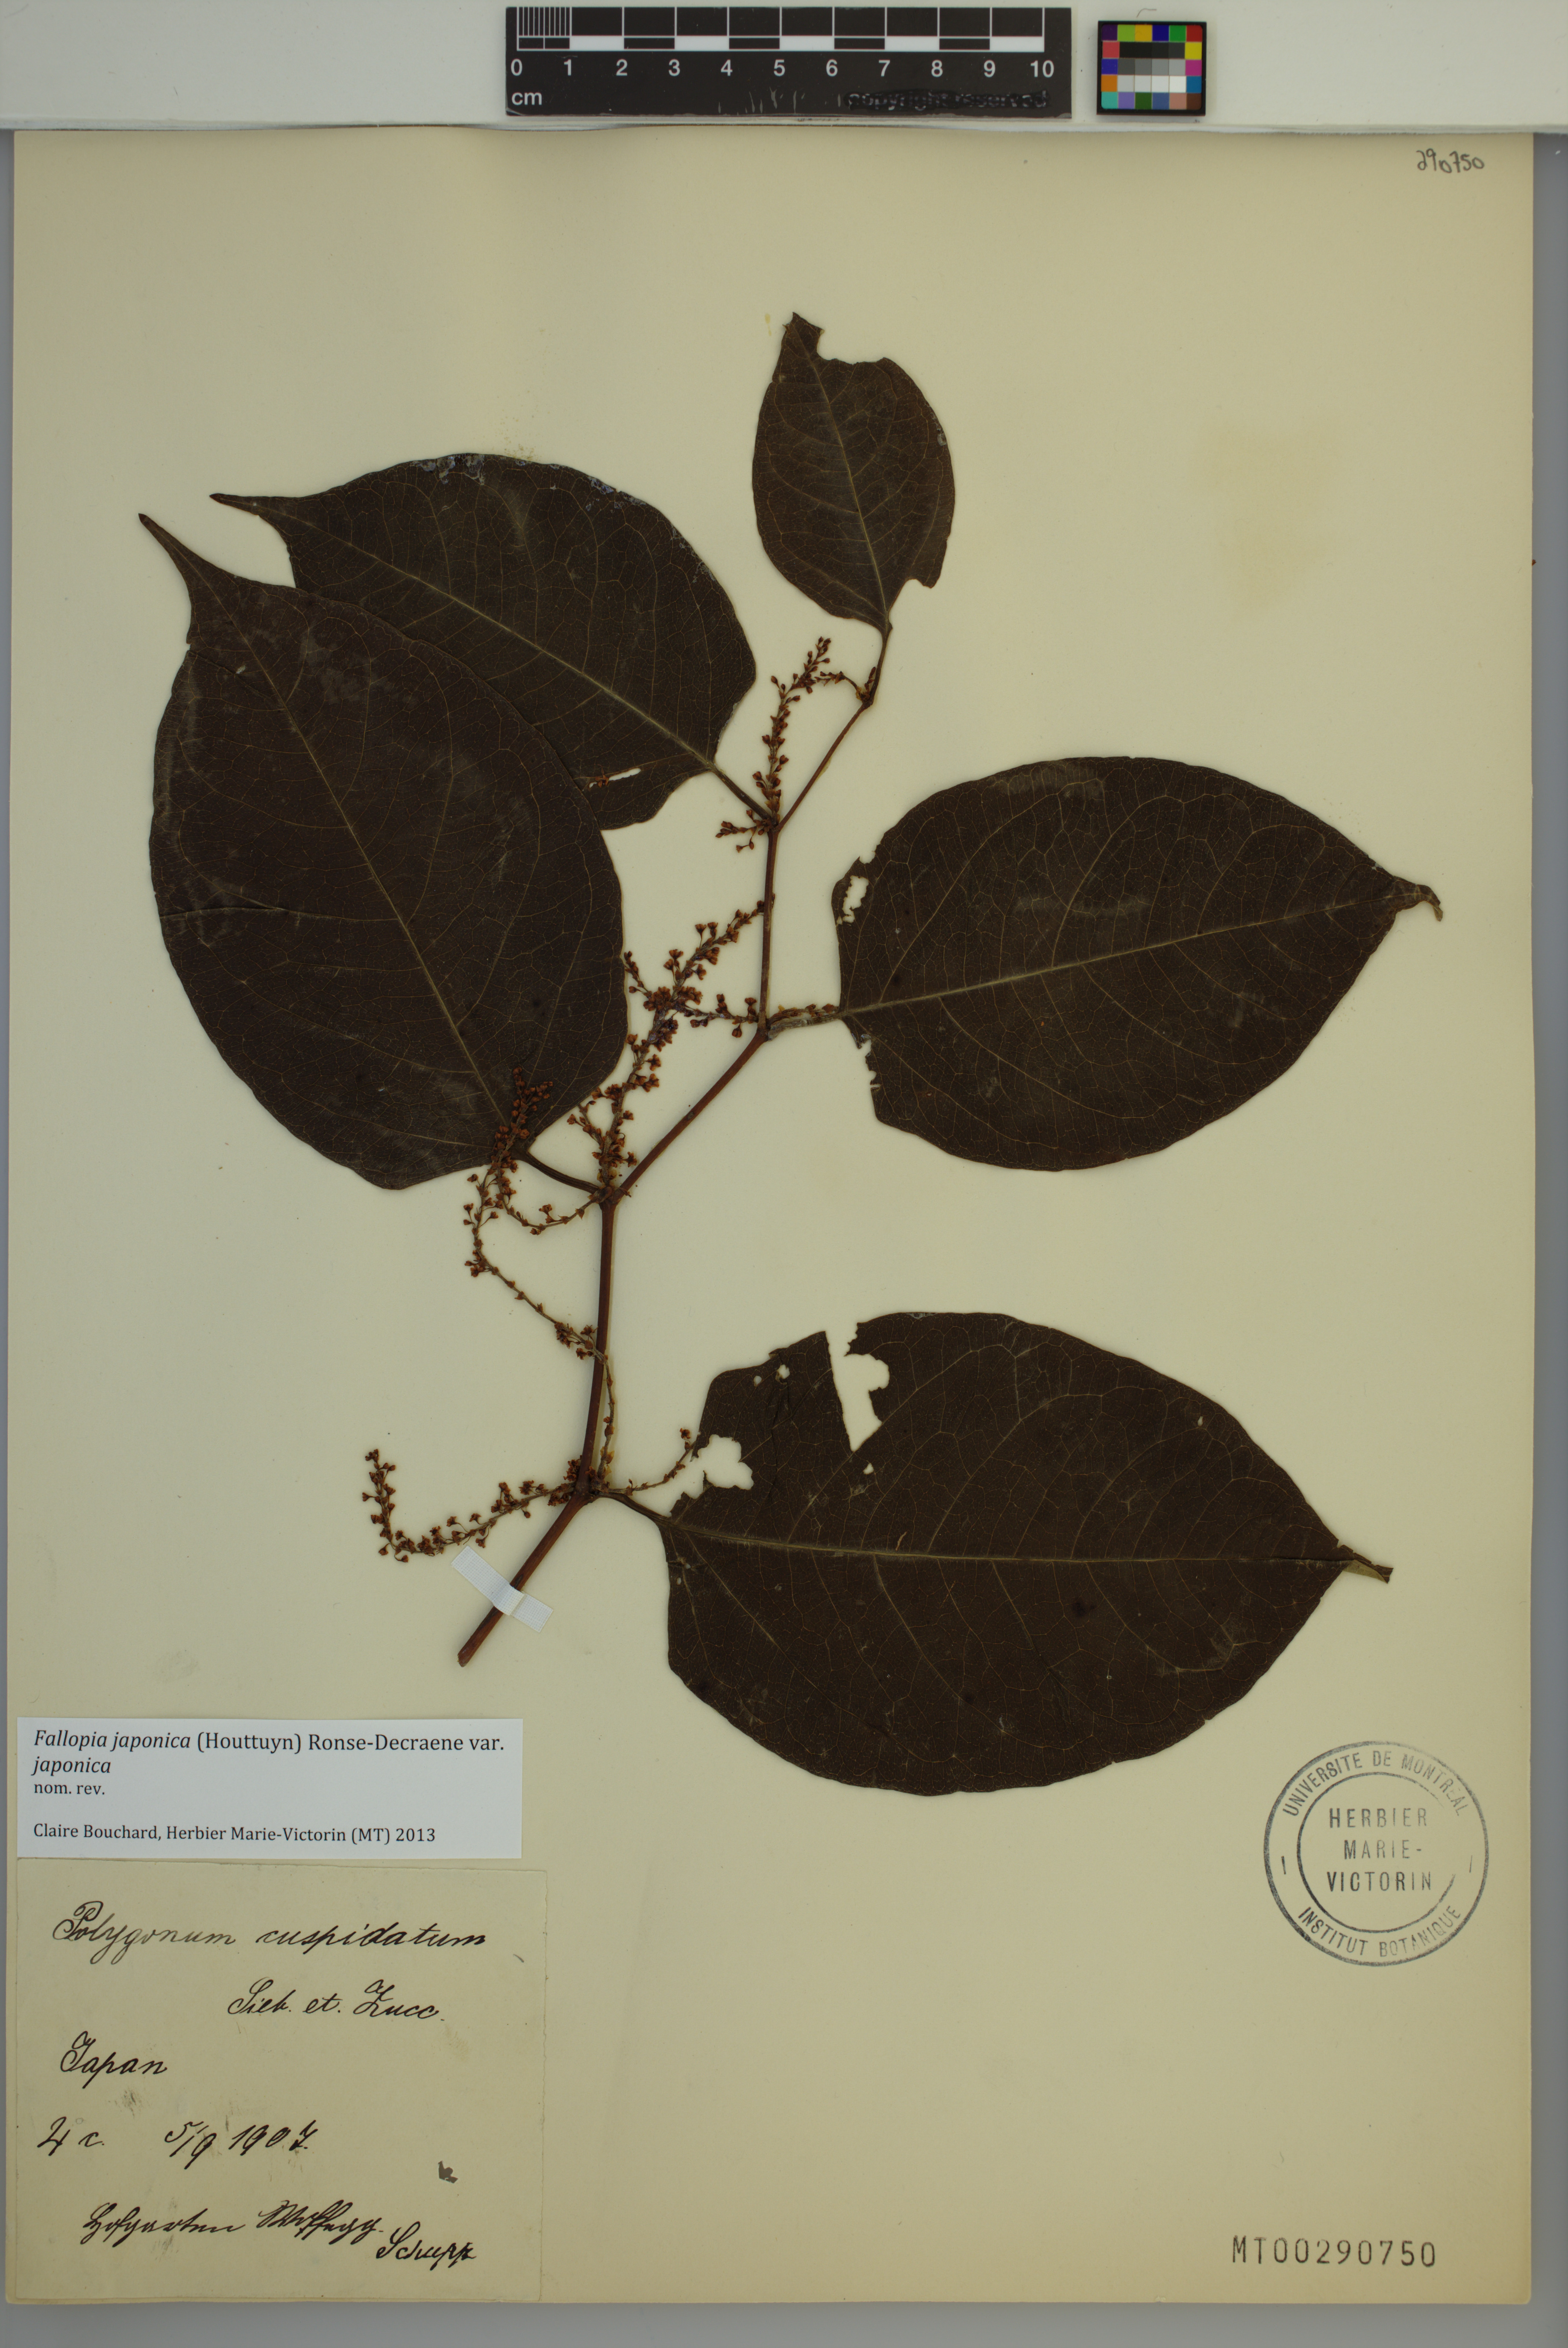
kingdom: Plantae
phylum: Tracheophyta
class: Magnoliopsida
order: Caryophyllales
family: Polygonaceae
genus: Reynoutria
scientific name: Reynoutria japonica
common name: Japanese knotweed
